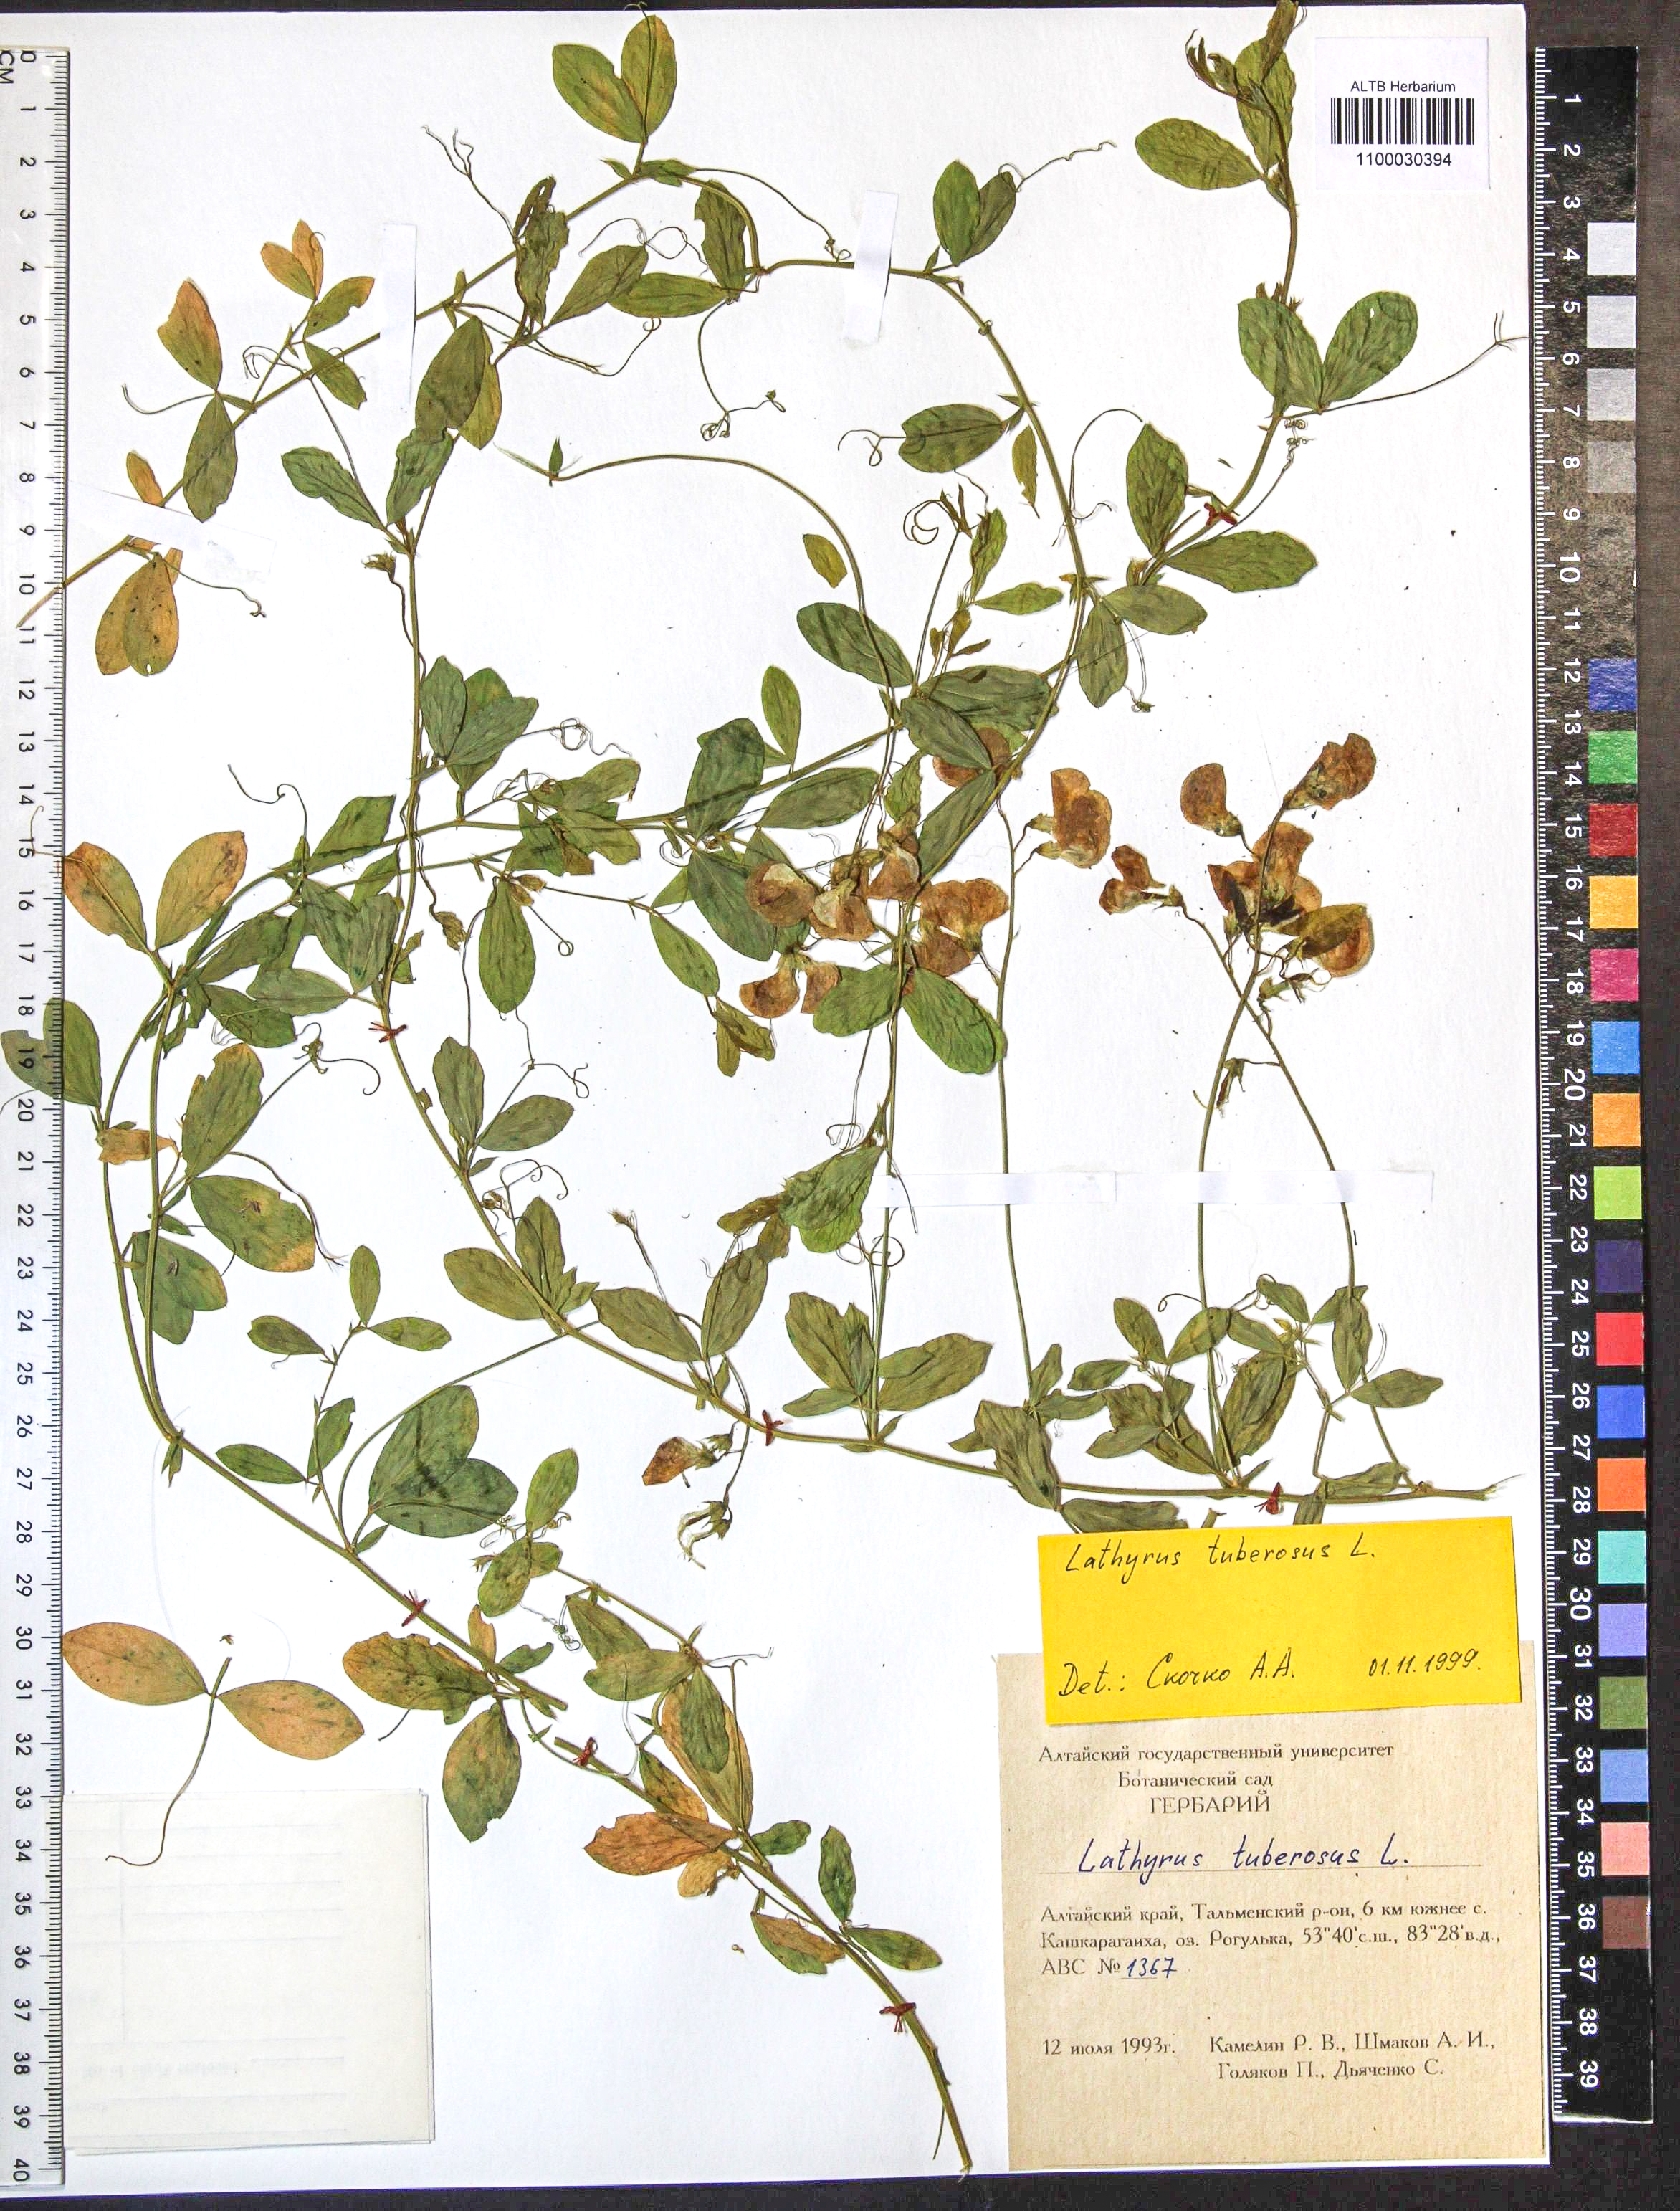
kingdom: Plantae
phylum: Tracheophyta
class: Magnoliopsida
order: Fabales
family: Fabaceae
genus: Lathyrus
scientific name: Lathyrus tuberosus
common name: Tuberous pea
